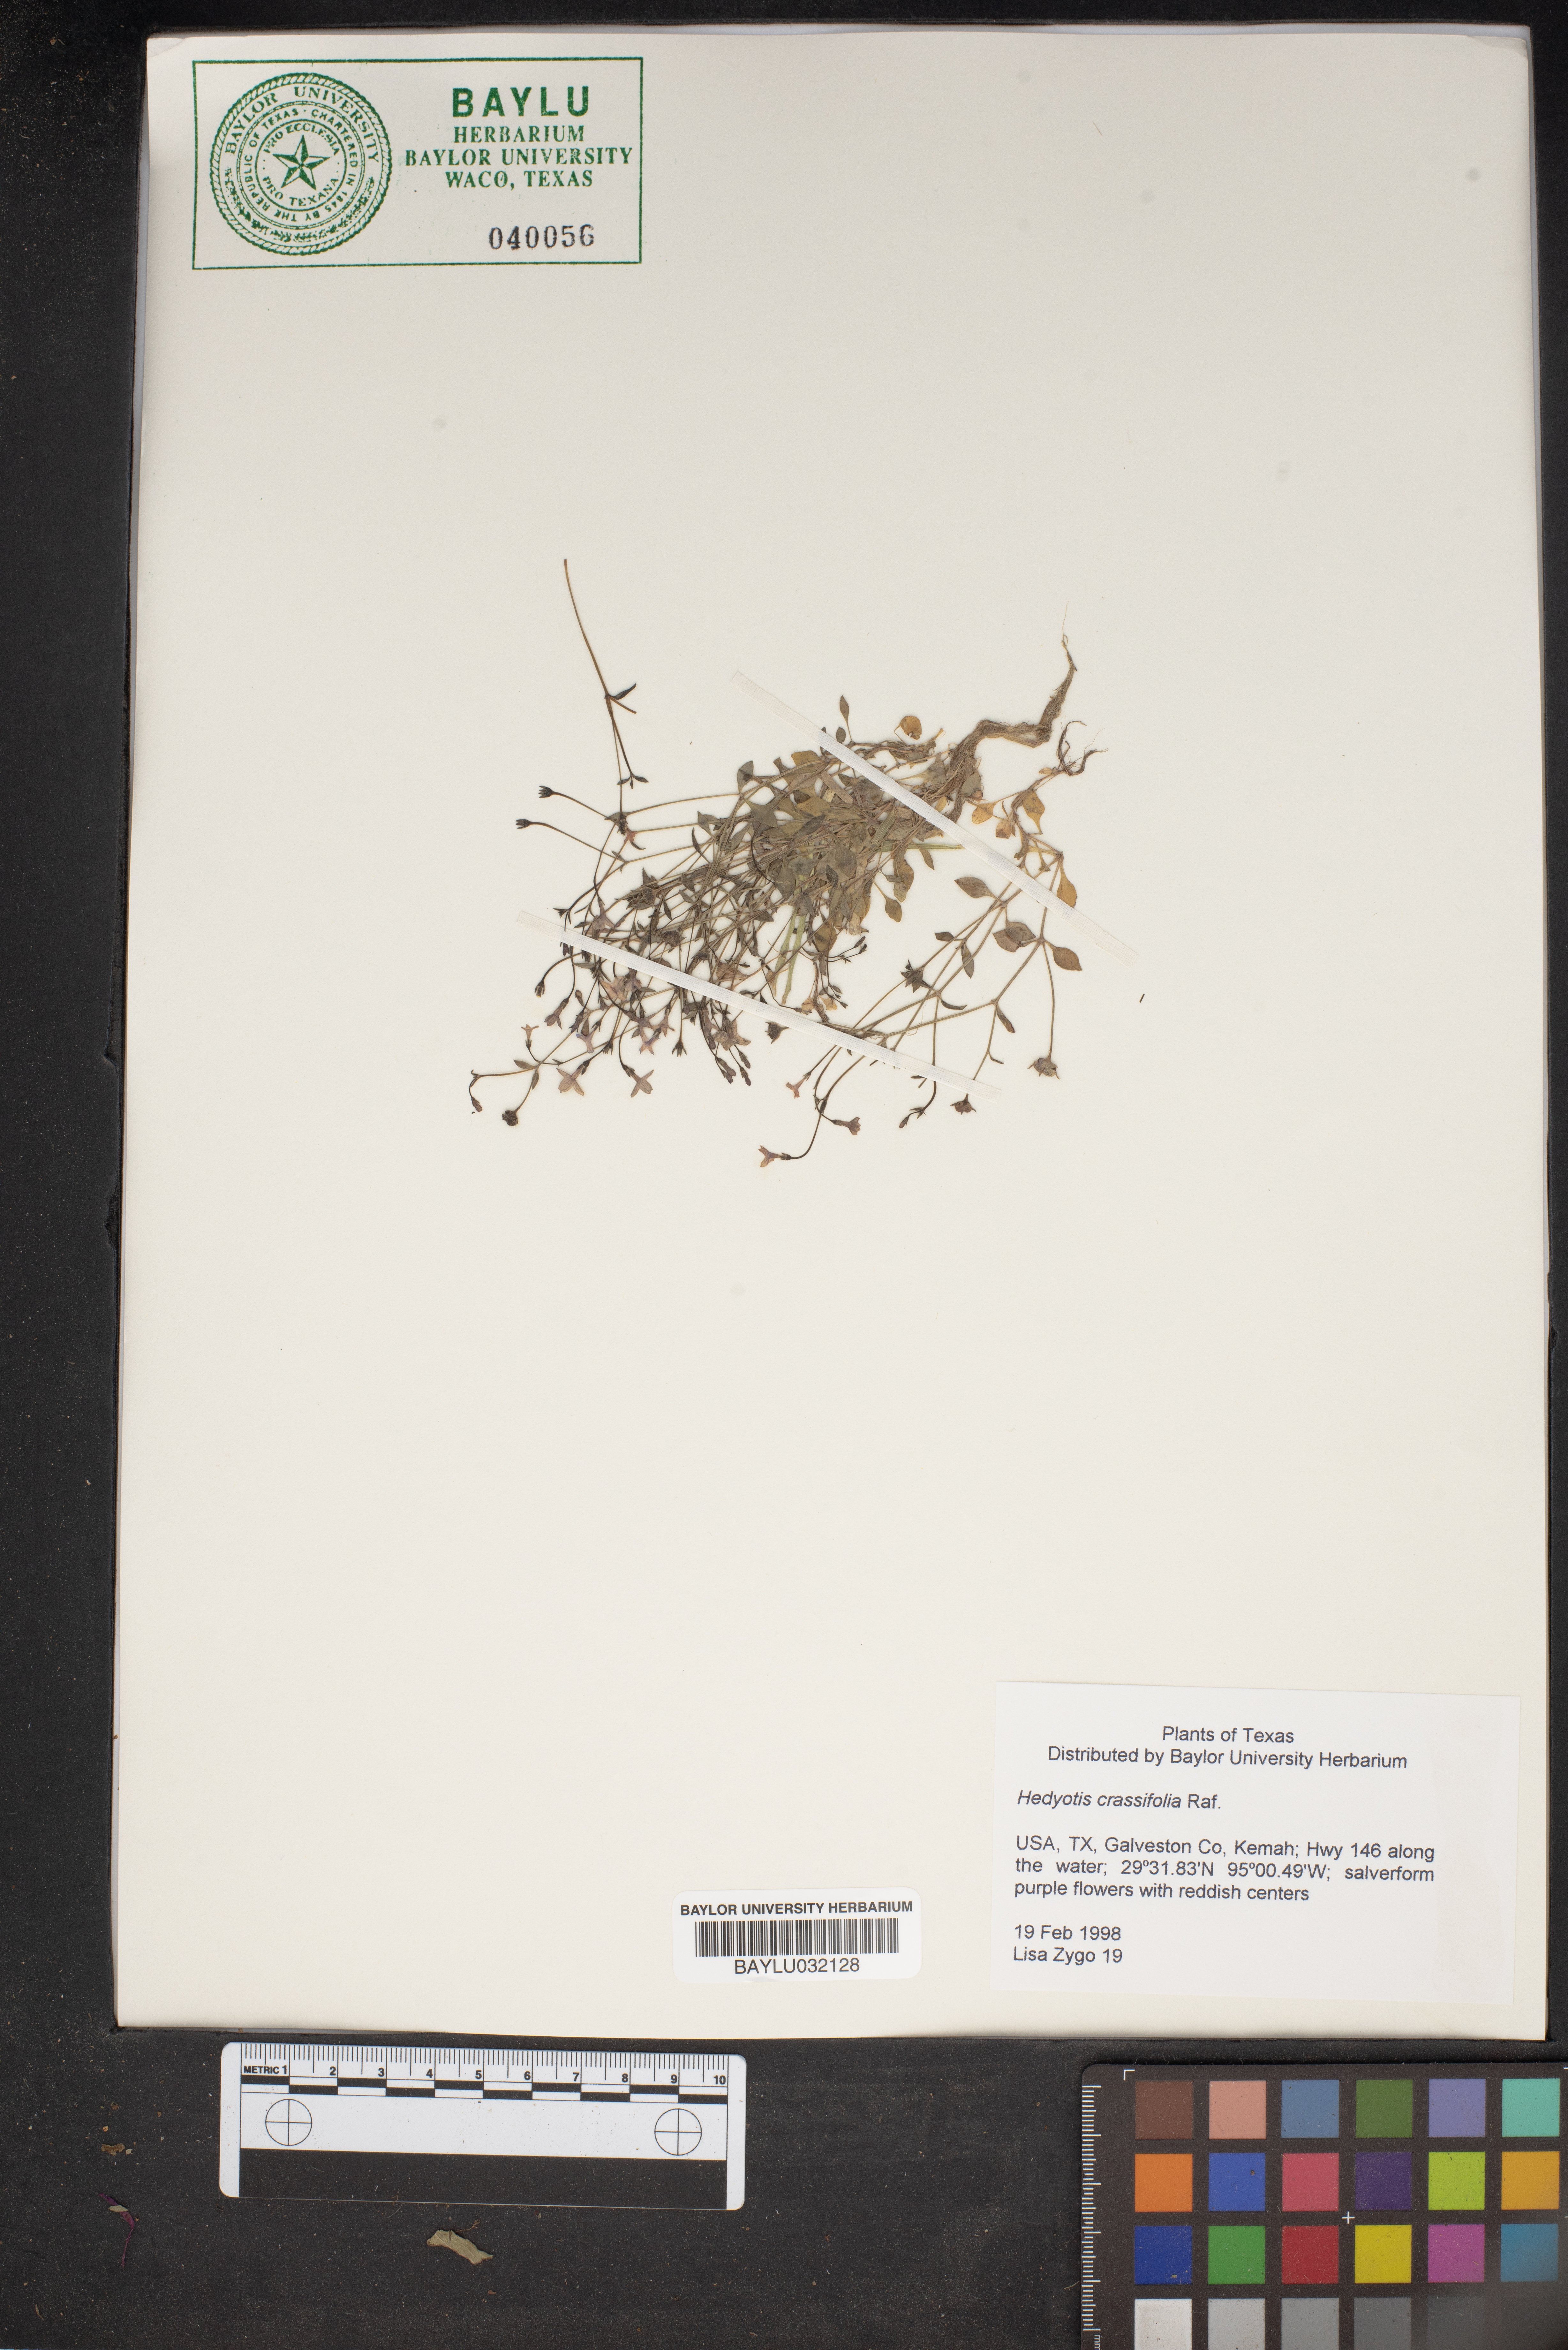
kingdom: Plantae
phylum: Tracheophyta
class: Magnoliopsida
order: Gentianales
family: Rubiaceae
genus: Houstonia
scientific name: Houstonia pusilla
